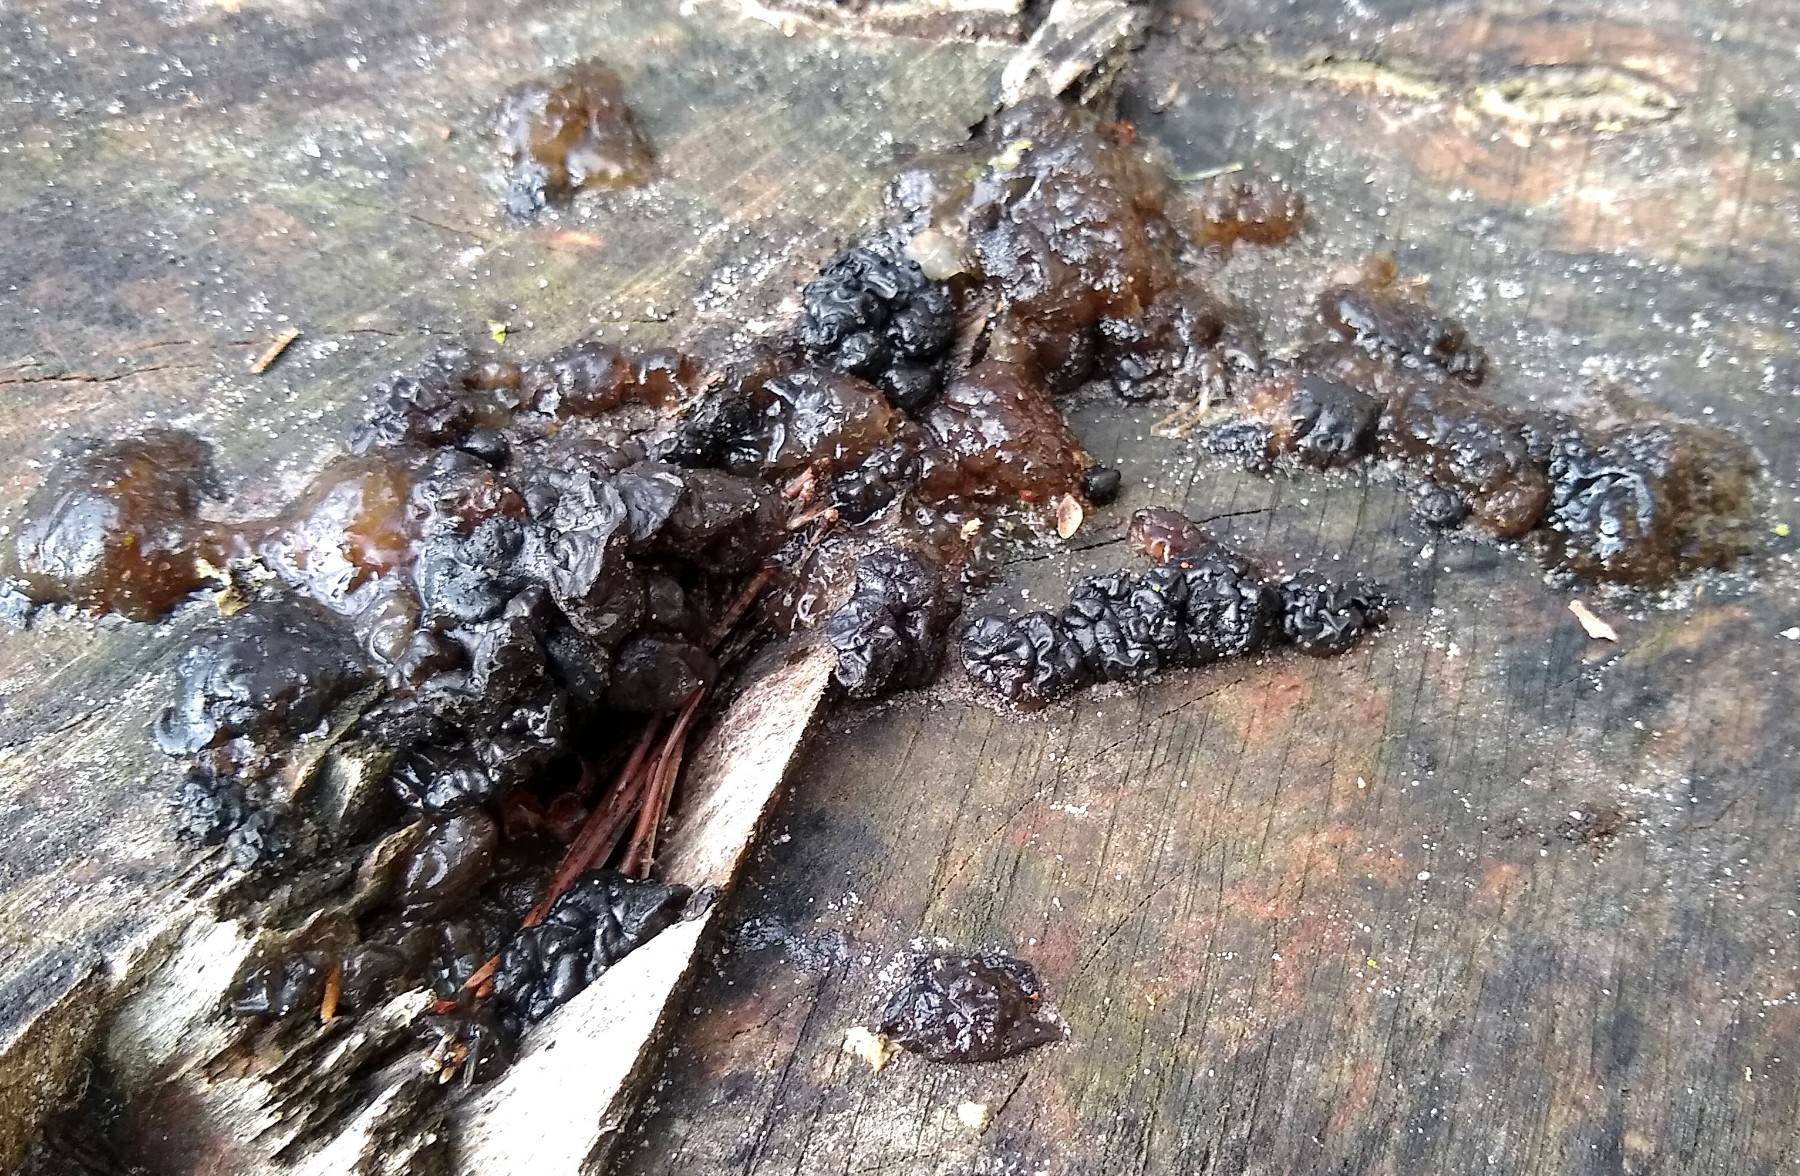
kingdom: Fungi
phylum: Basidiomycota
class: Agaricomycetes
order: Auriculariales
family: Auriculariaceae
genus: Exidia
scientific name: Exidia nigricans
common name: almindelig bævretop
